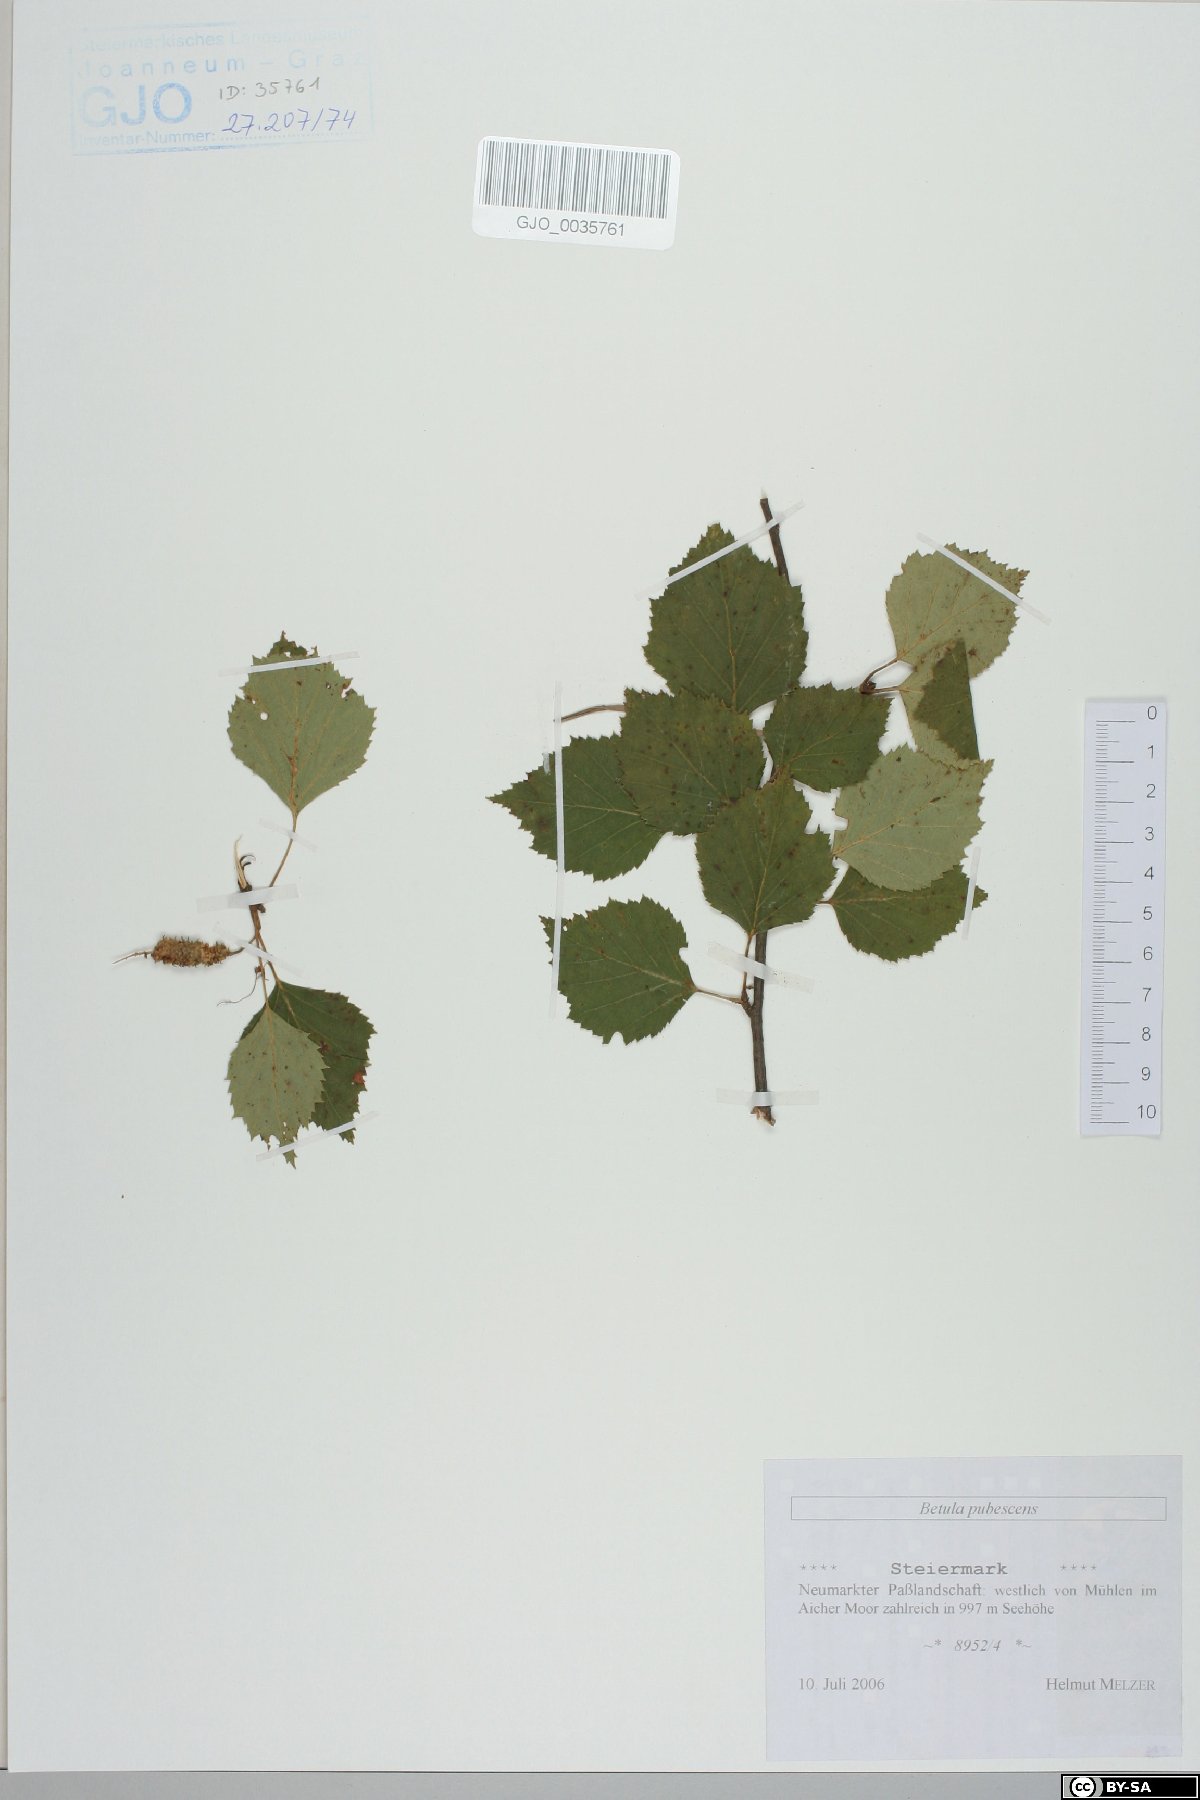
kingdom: Plantae
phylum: Tracheophyta
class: Magnoliopsida
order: Fagales
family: Betulaceae
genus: Betula
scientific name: Betula pubescens
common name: Downy birch
